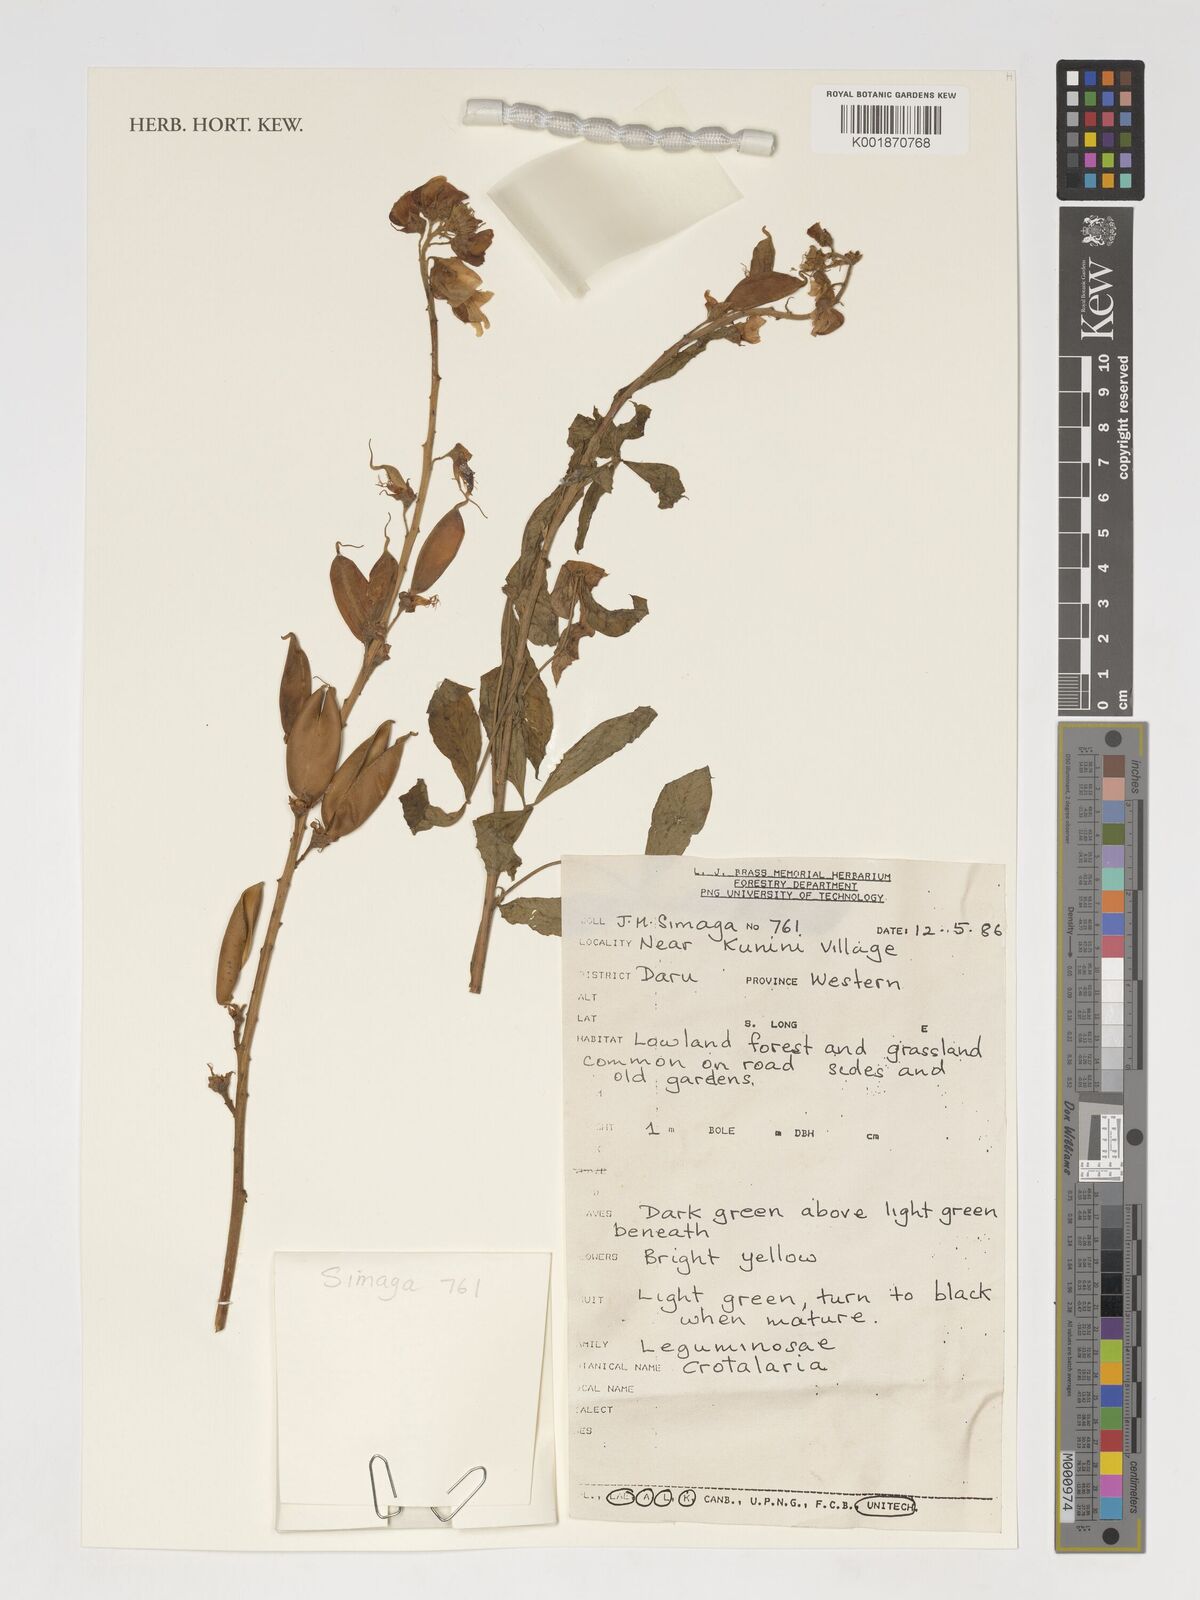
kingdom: Plantae
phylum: Tracheophyta
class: Magnoliopsida
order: Fabales
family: Fabaceae
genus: Crotalaria
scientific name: Crotalaria
